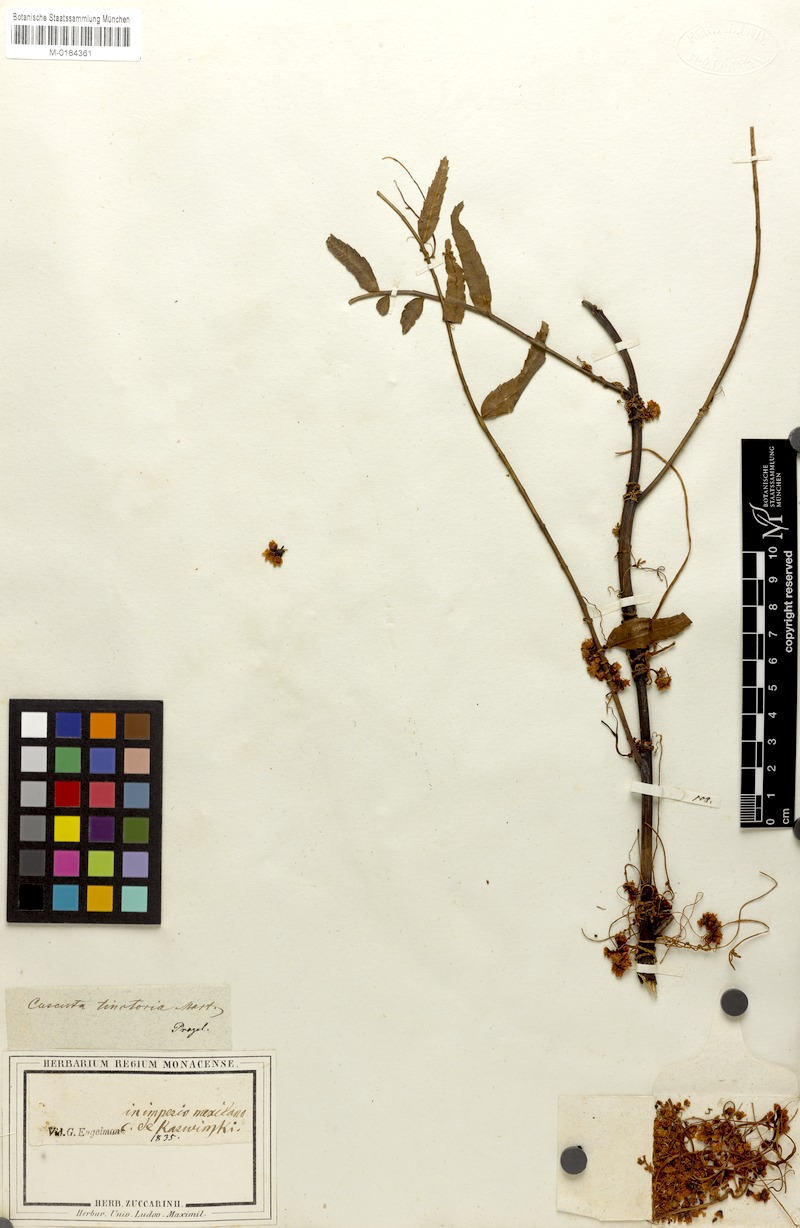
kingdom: Plantae
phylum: Tracheophyta
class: Magnoliopsida
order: Solanales
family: Convolvulaceae
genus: Cuscuta
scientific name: Cuscuta tinctoria
